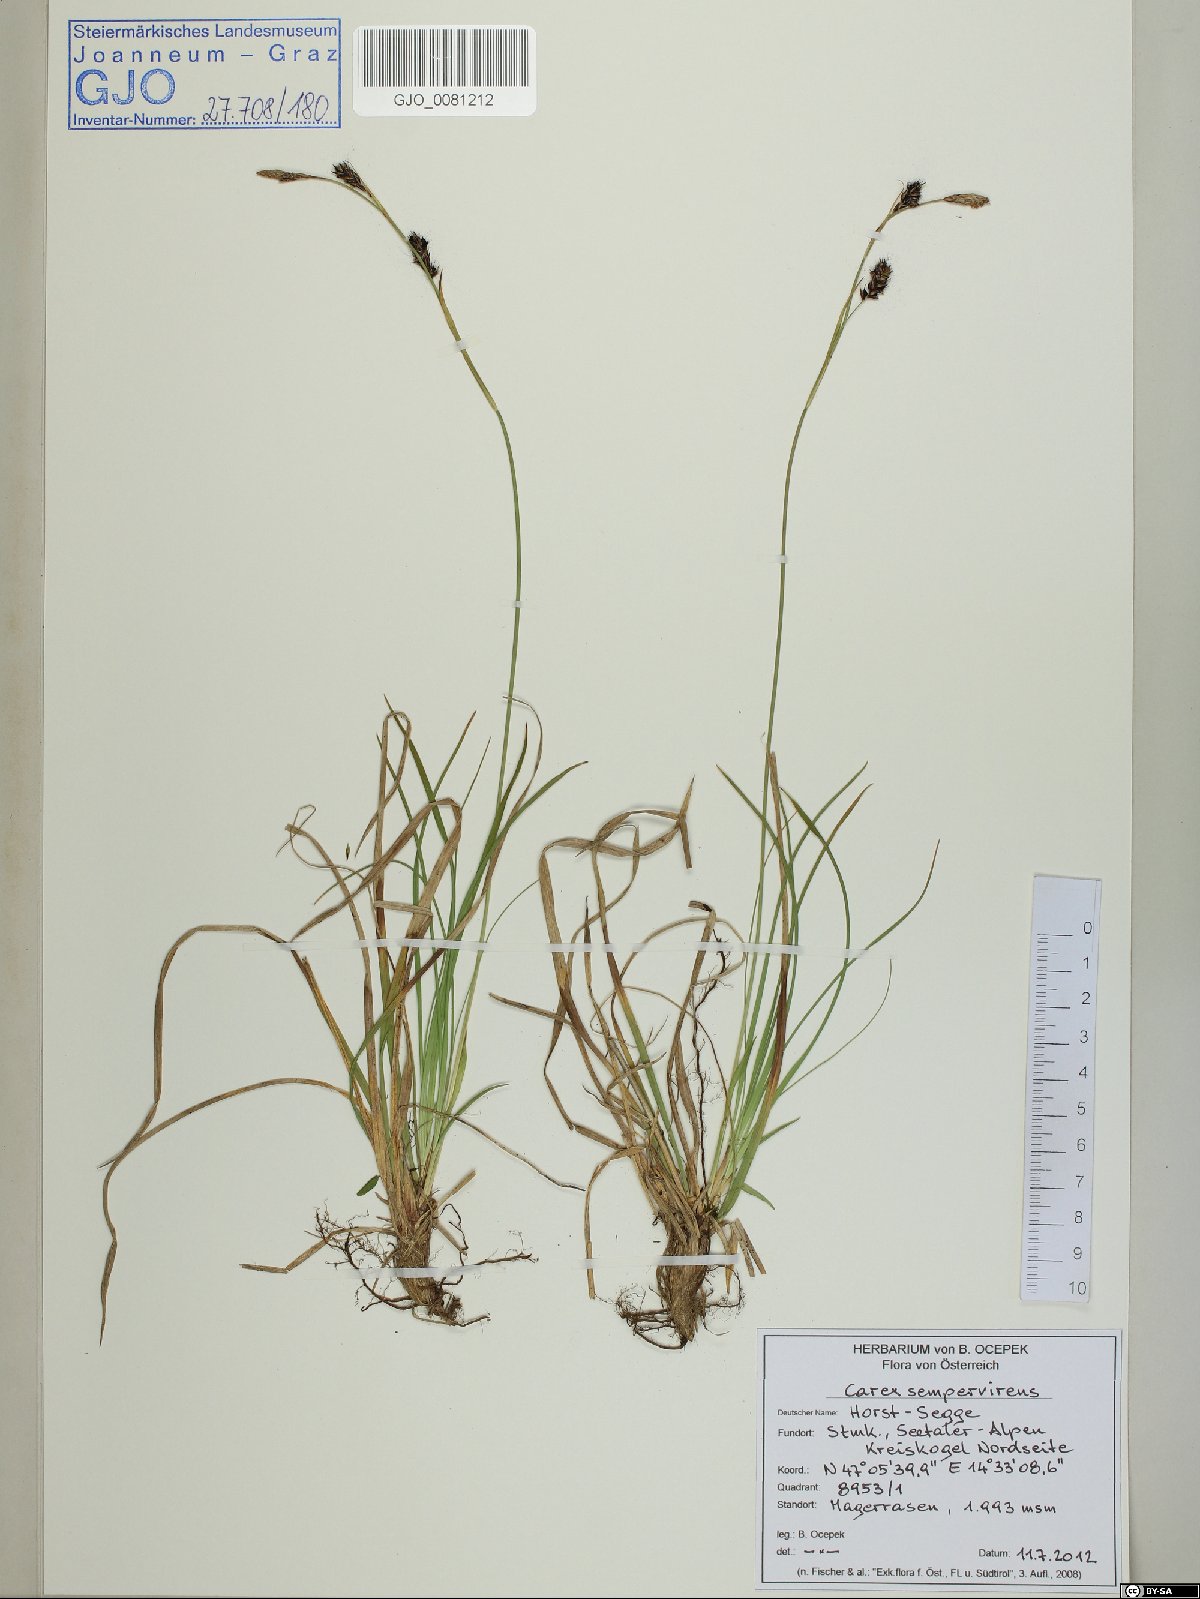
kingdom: Plantae
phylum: Tracheophyta
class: Liliopsida
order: Poales
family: Cyperaceae
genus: Carex
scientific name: Carex sempervirens
